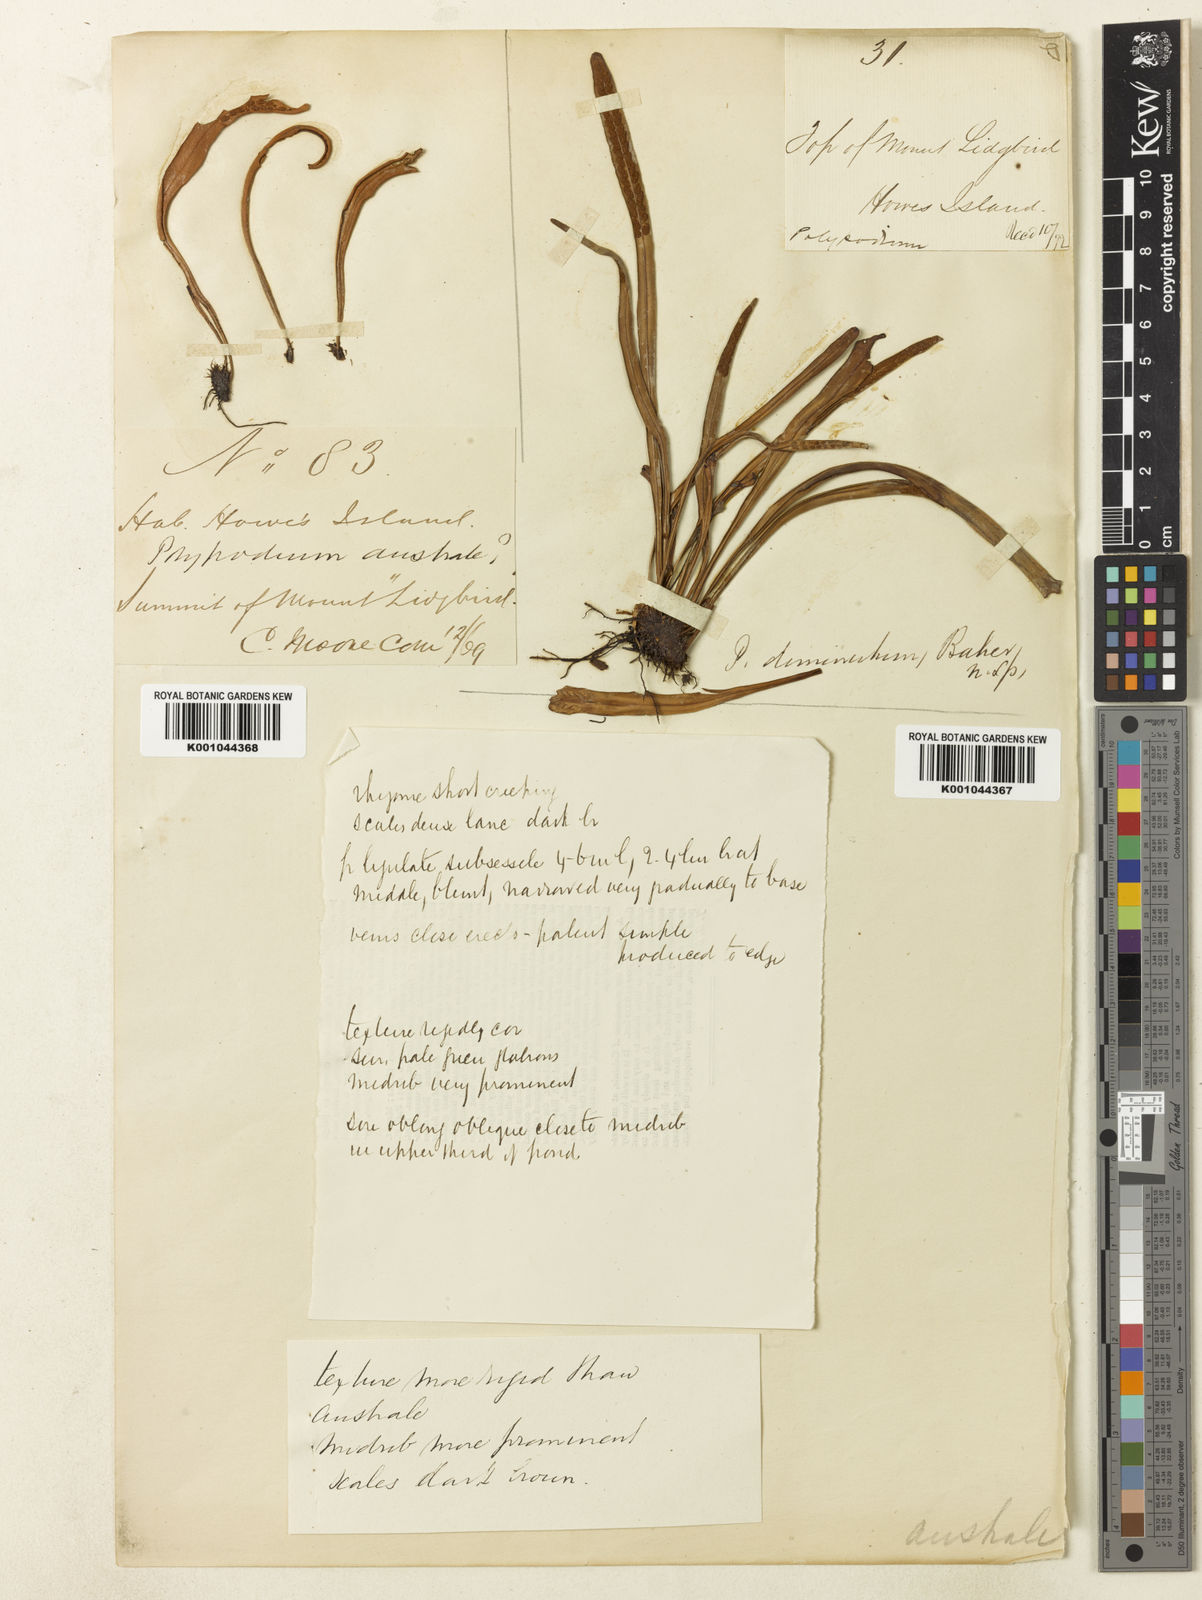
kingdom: Plantae
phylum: Tracheophyta
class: Polypodiopsida
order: Polypodiales
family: Polypodiaceae
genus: Grammitis
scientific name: Grammitis diminuta
